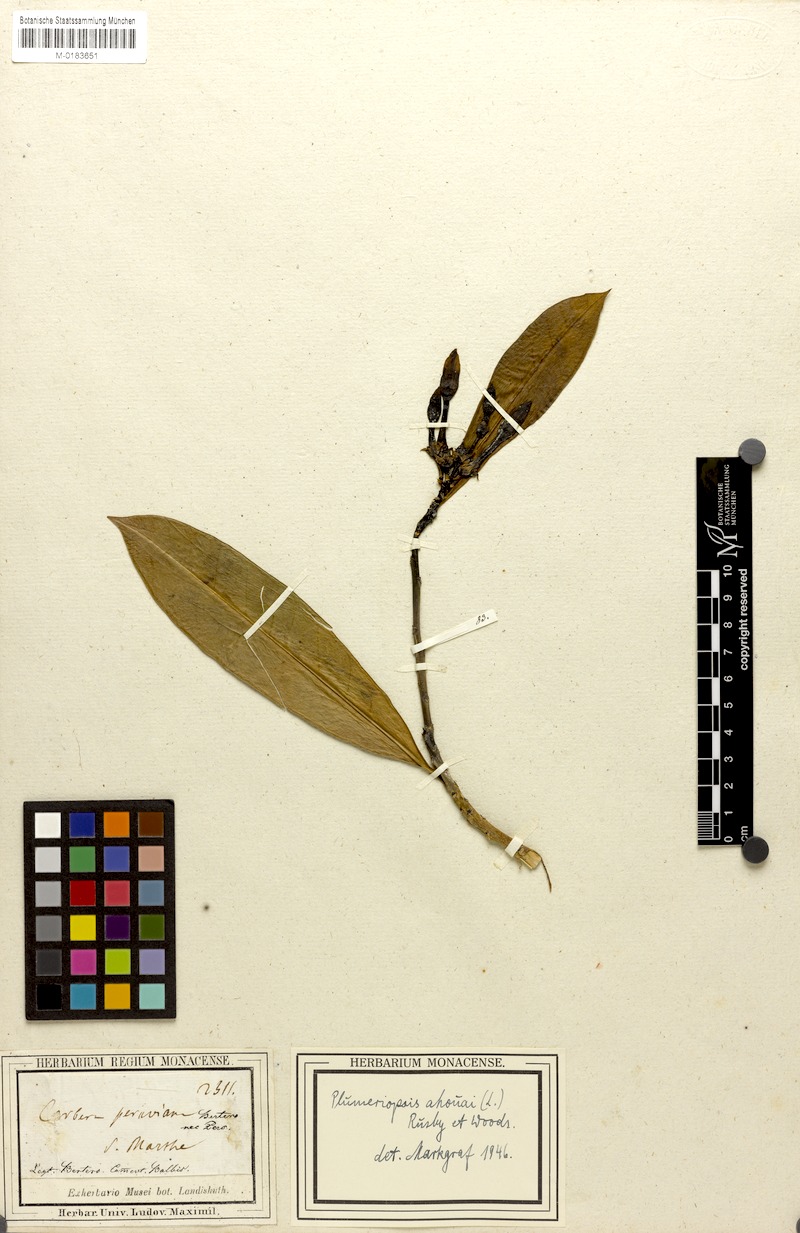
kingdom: Plantae
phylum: Tracheophyta
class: Magnoliopsida
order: Gentianales
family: Apocynaceae
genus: Thevetia
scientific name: Thevetia ahouai
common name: Broadleaf thevetia
